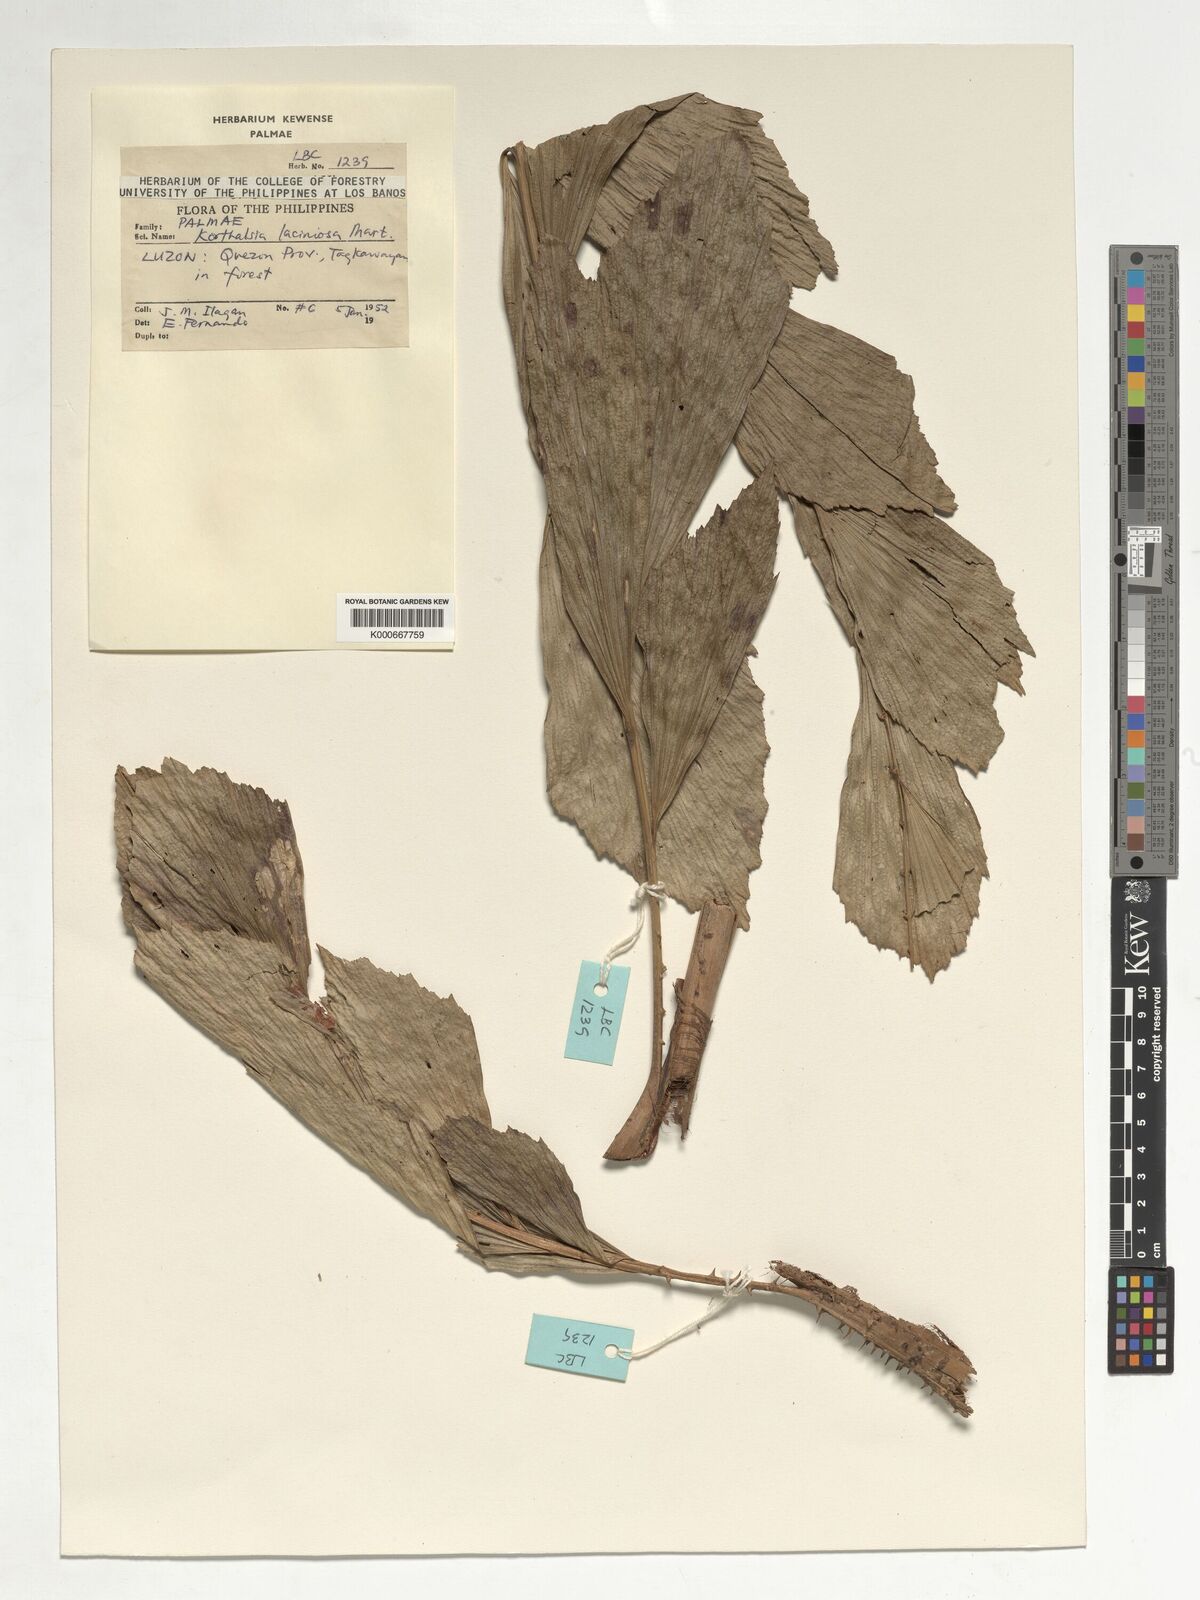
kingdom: Plantae
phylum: Tracheophyta
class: Liliopsida
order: Arecales
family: Arecaceae
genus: Korthalsia
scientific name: Korthalsia laciniosa
